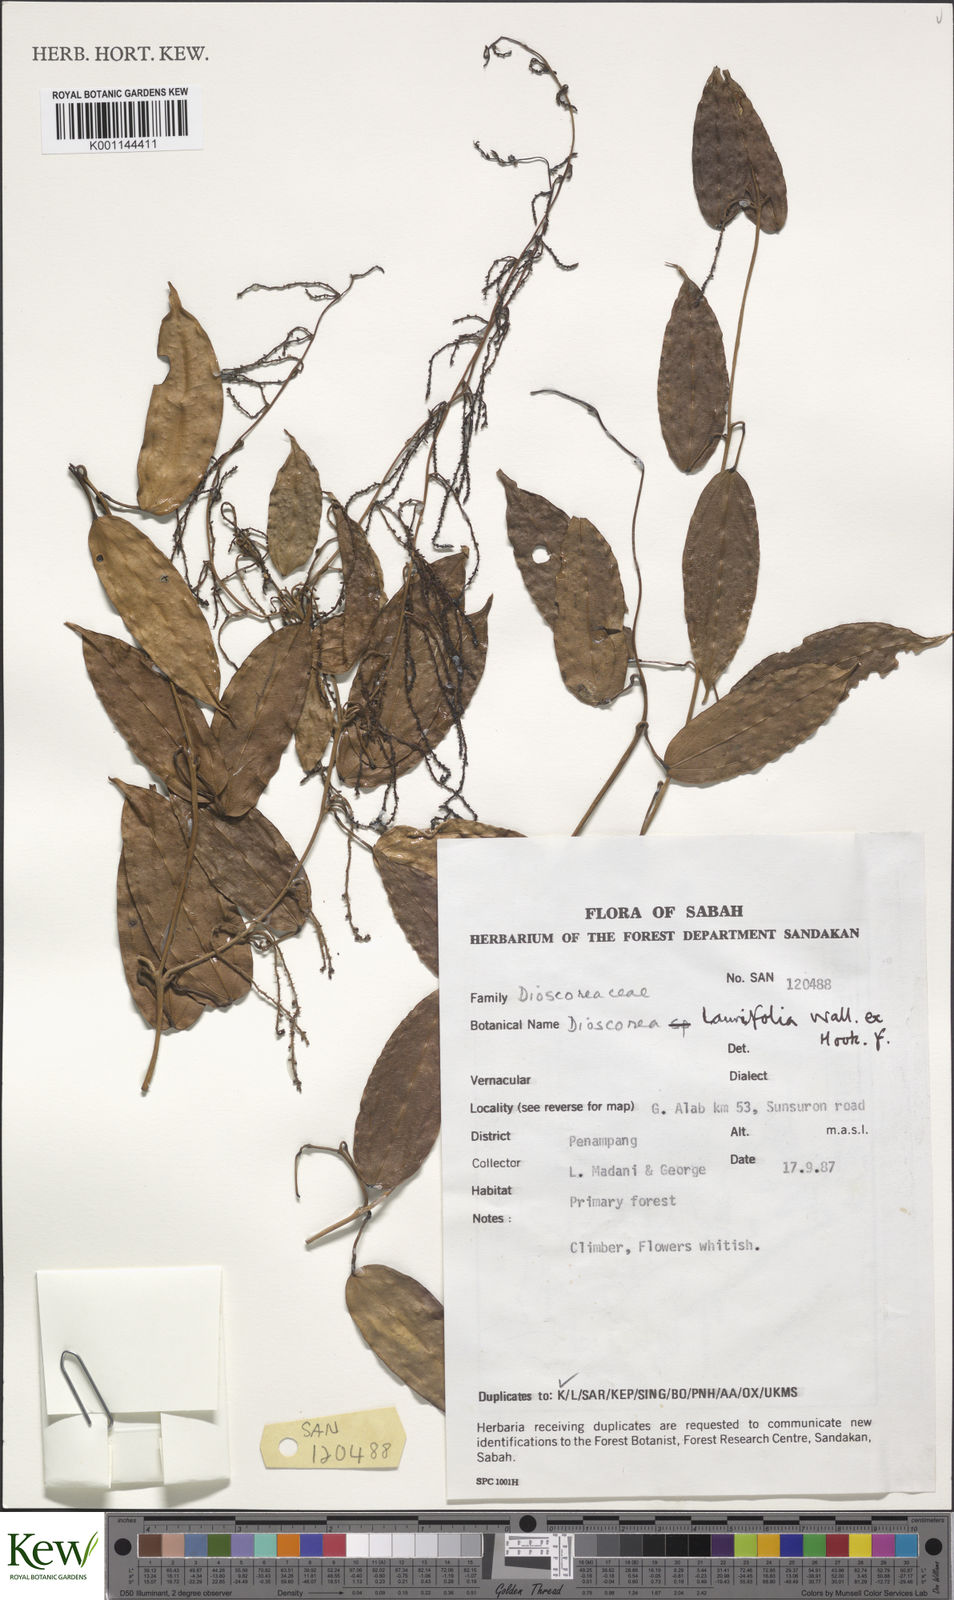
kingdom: Plantae
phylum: Tracheophyta
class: Liliopsida
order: Dioscoreales
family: Dioscoreaceae
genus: Dioscorea
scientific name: Dioscorea laurifolia
